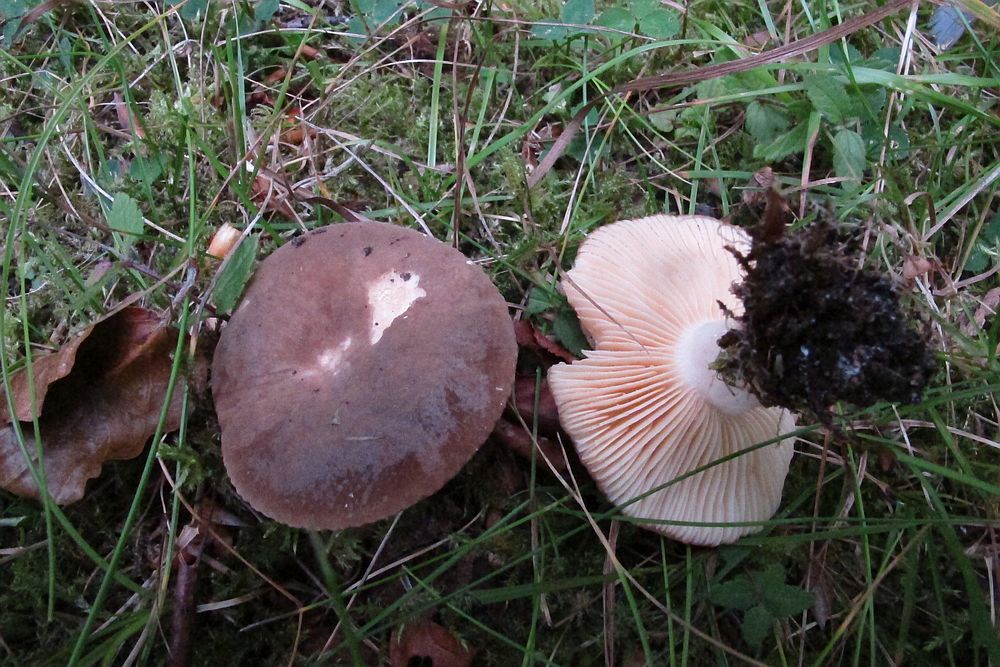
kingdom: Fungi
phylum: Basidiomycota
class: Agaricomycetes
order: Russulales
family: Russulaceae
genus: Lactarius
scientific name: Lactarius romagnesii
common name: fjernbladet mælkehat
